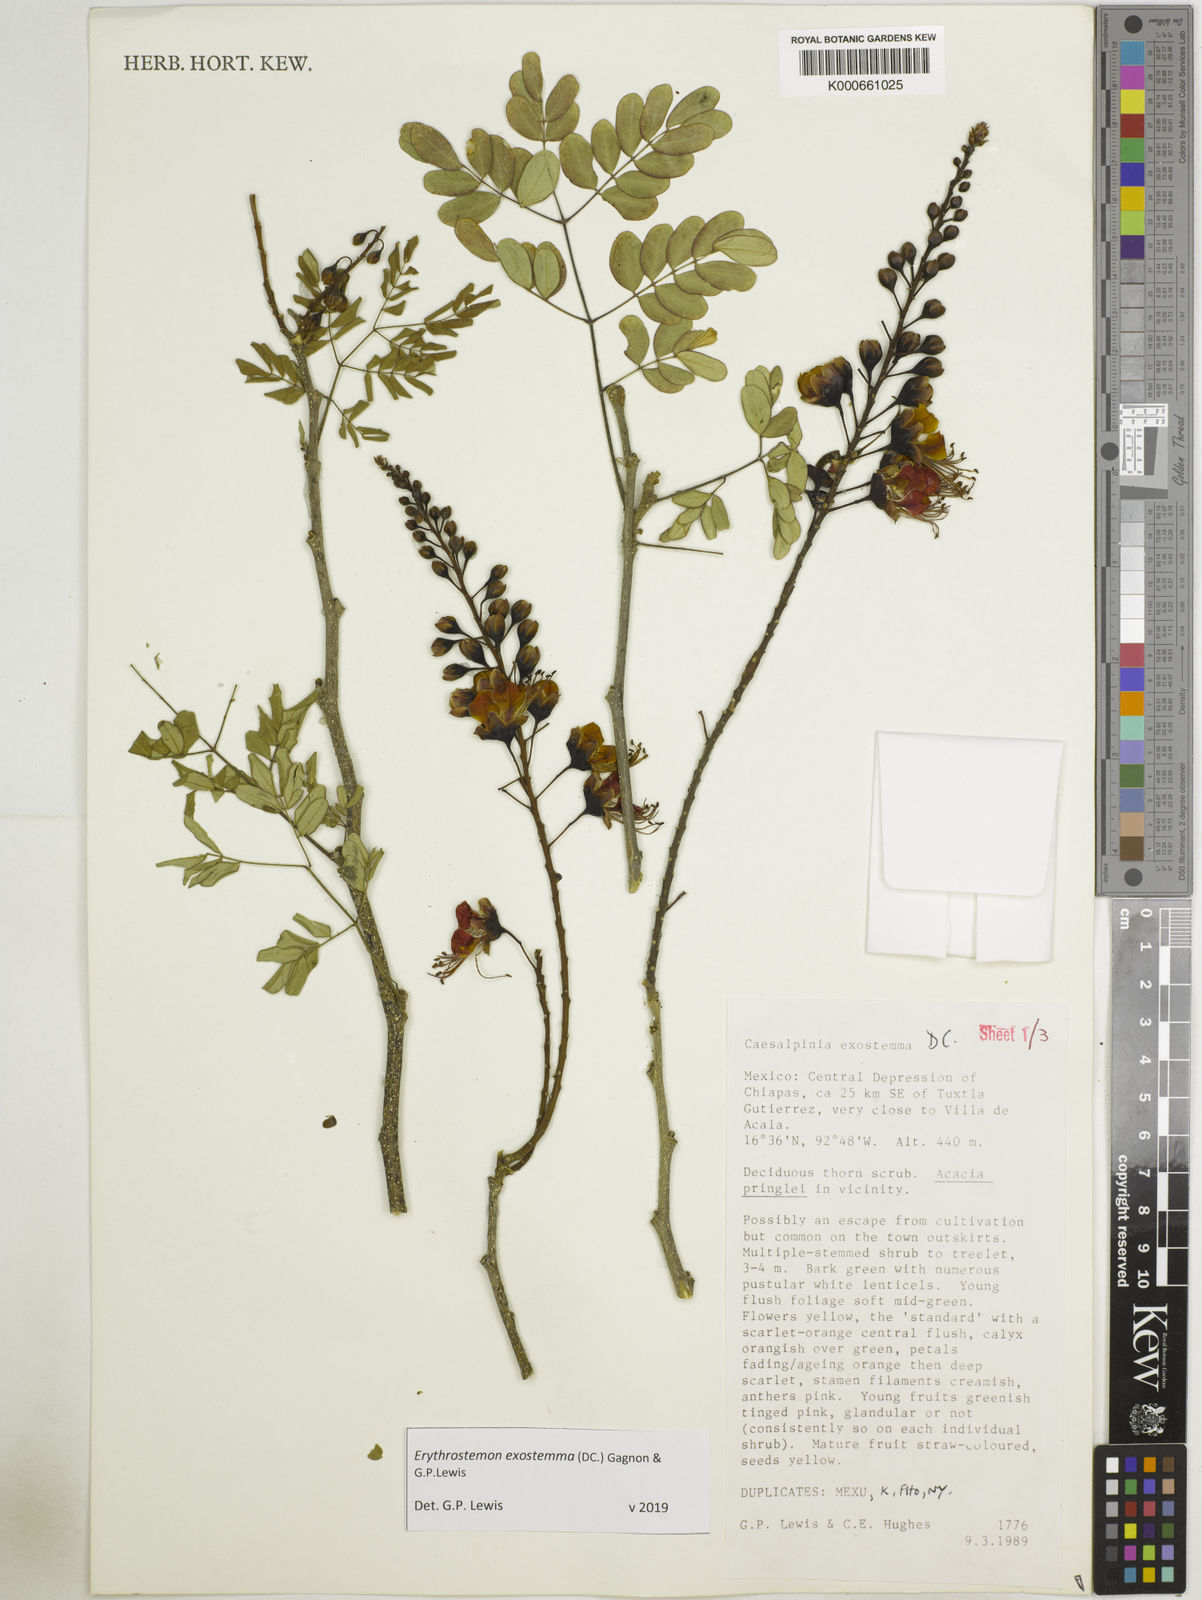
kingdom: Plantae
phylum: Tracheophyta
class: Magnoliopsida
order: Fabales
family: Fabaceae
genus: Erythrostemon
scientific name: Erythrostemon exostemma
